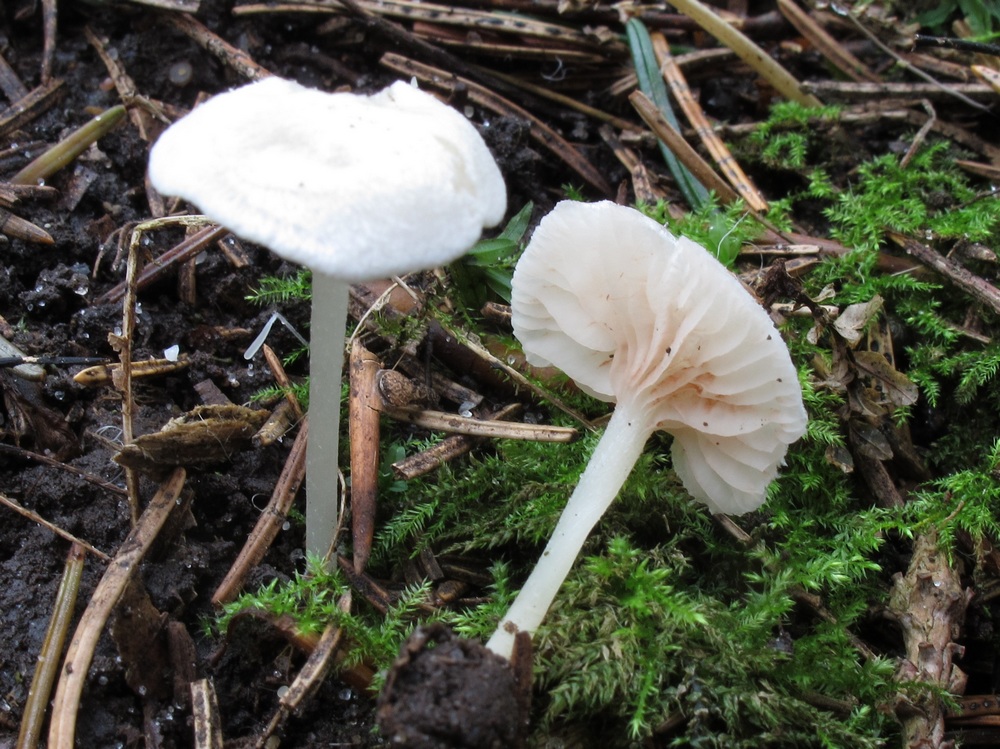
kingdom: Fungi
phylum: Basidiomycota
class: Agaricomycetes
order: Agaricales
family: Entolomataceae
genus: Entoloma
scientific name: Entoloma sericellum
